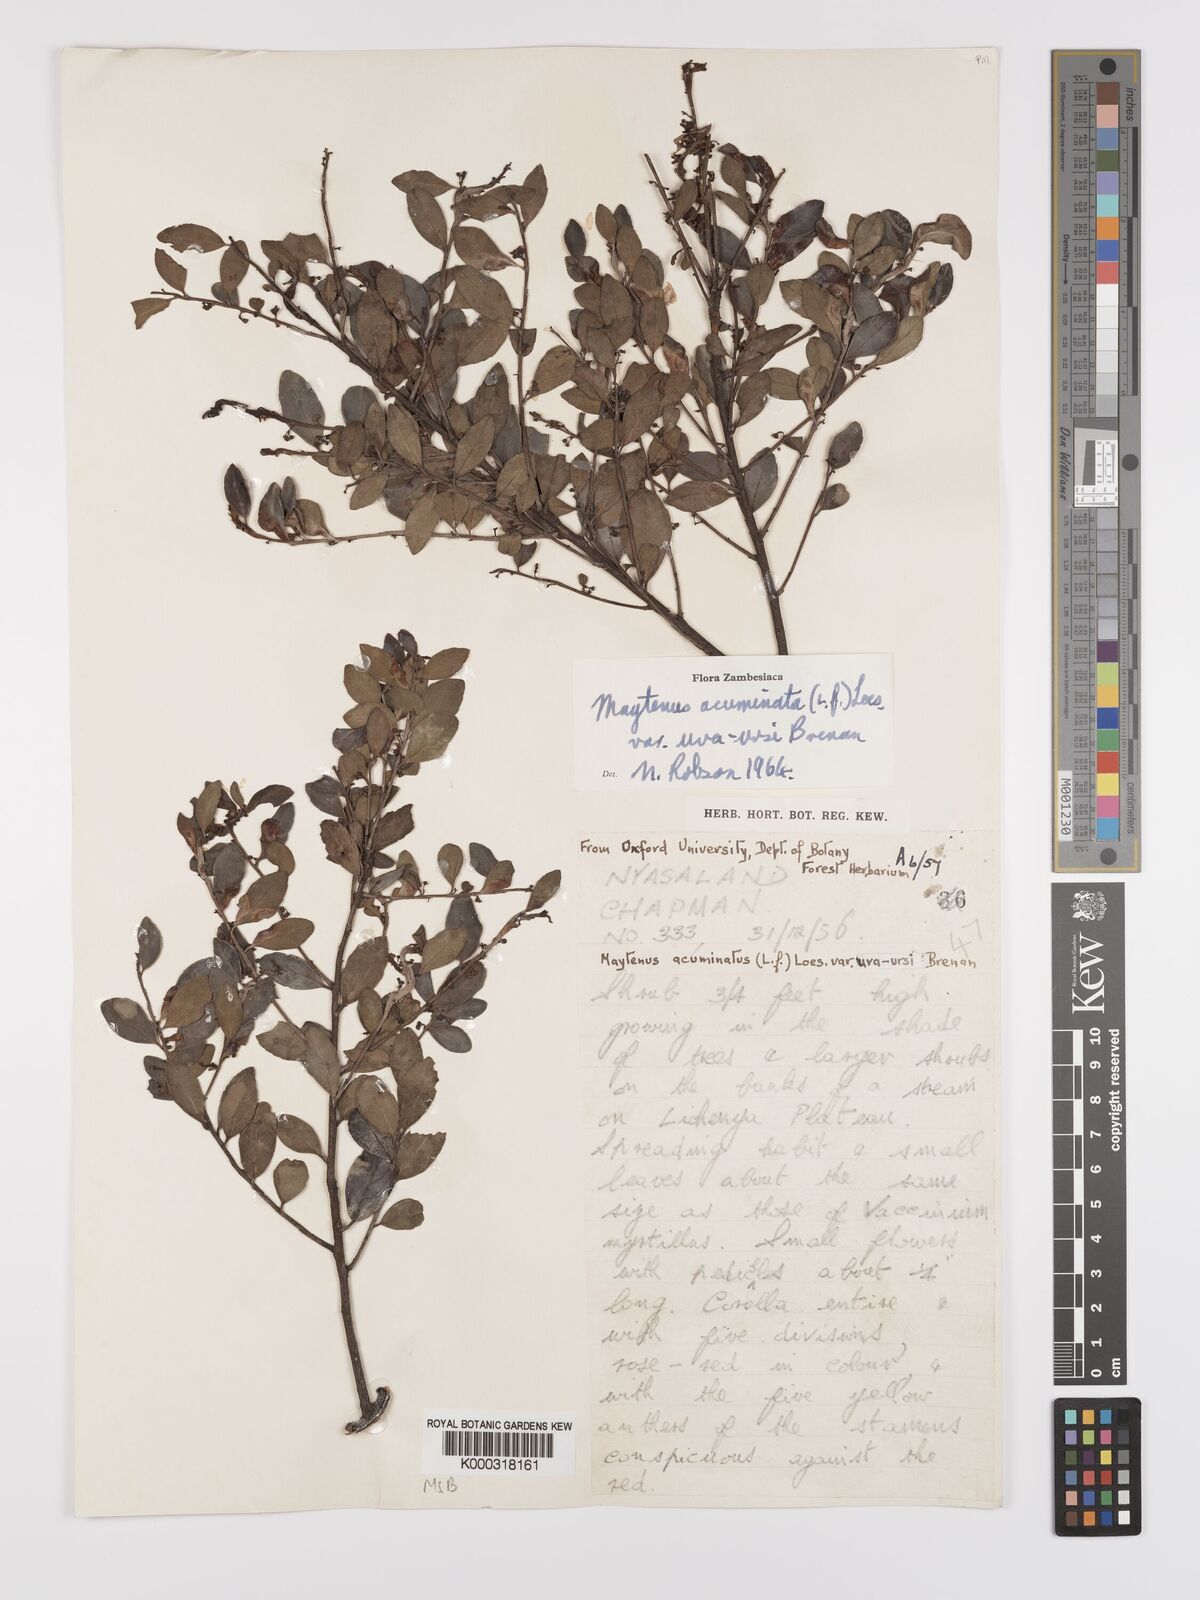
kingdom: Plantae
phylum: Tracheophyta
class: Magnoliopsida
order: Celastrales
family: Celastraceae
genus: Maytenus
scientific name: Maytenus
